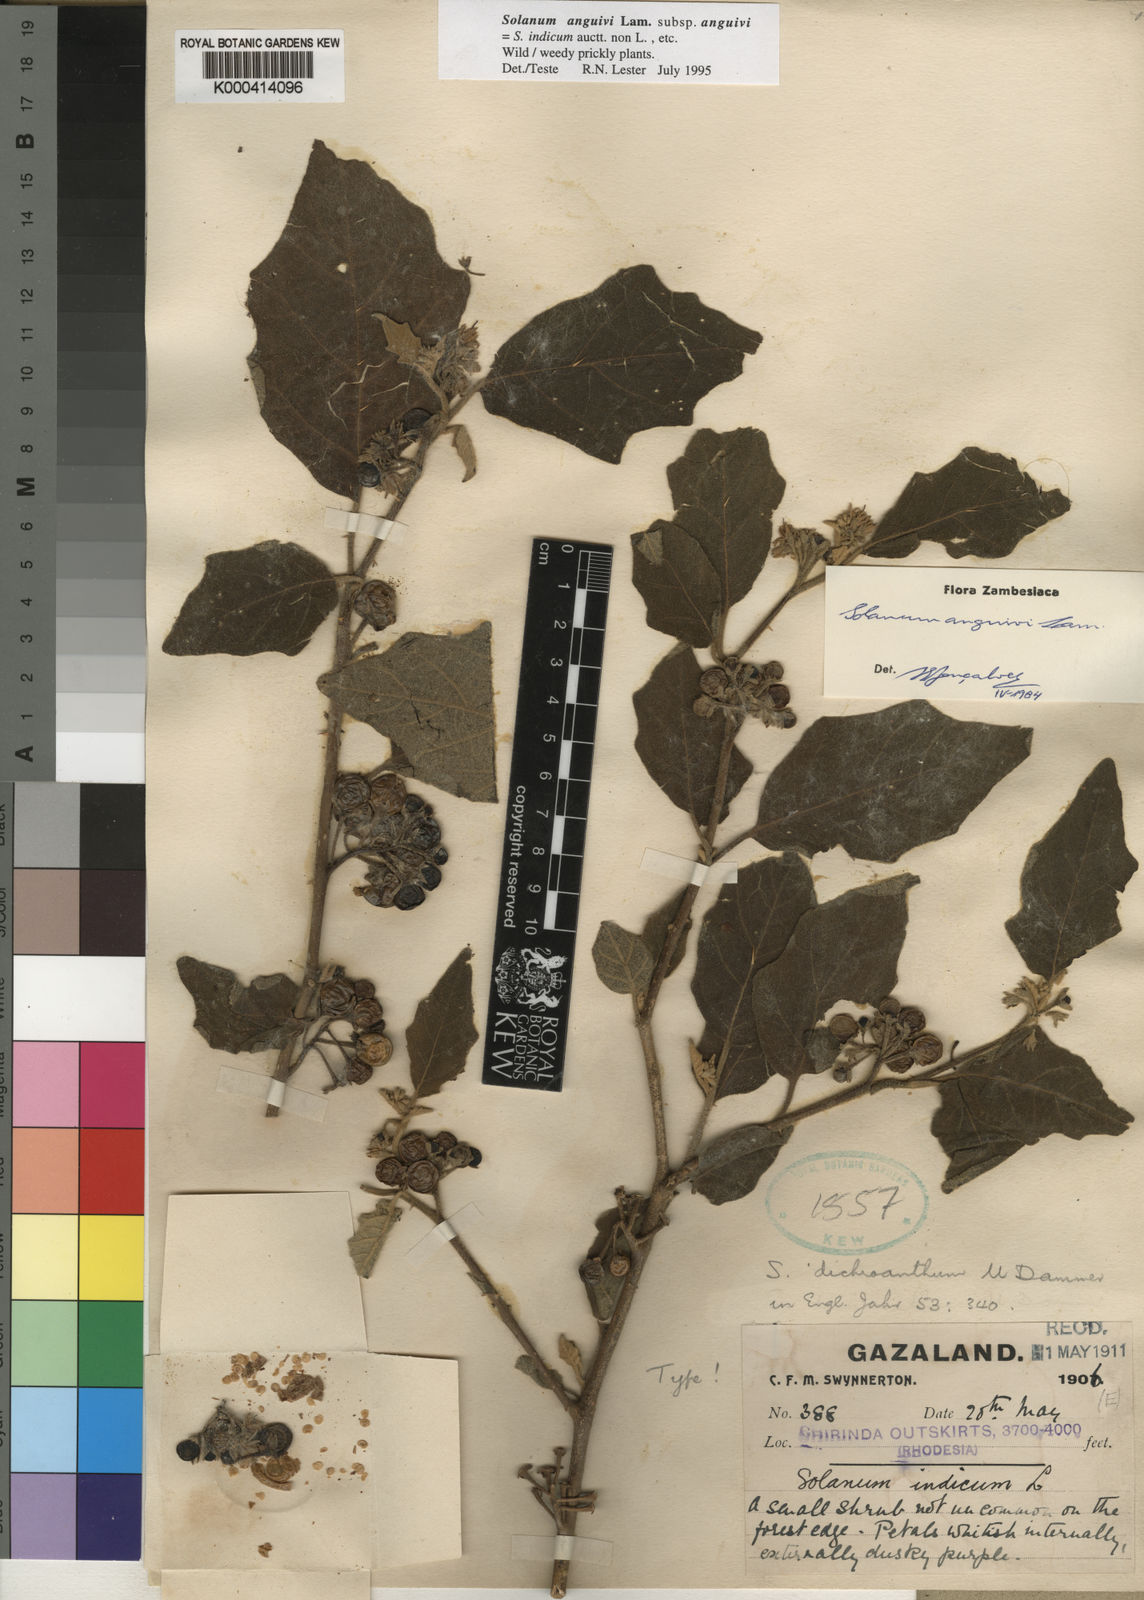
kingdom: Plantae
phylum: Tracheophyta
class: Magnoliopsida
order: Solanales
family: Solanaceae
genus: Solanum
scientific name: Solanum anguivi
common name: Forest bitterberry
